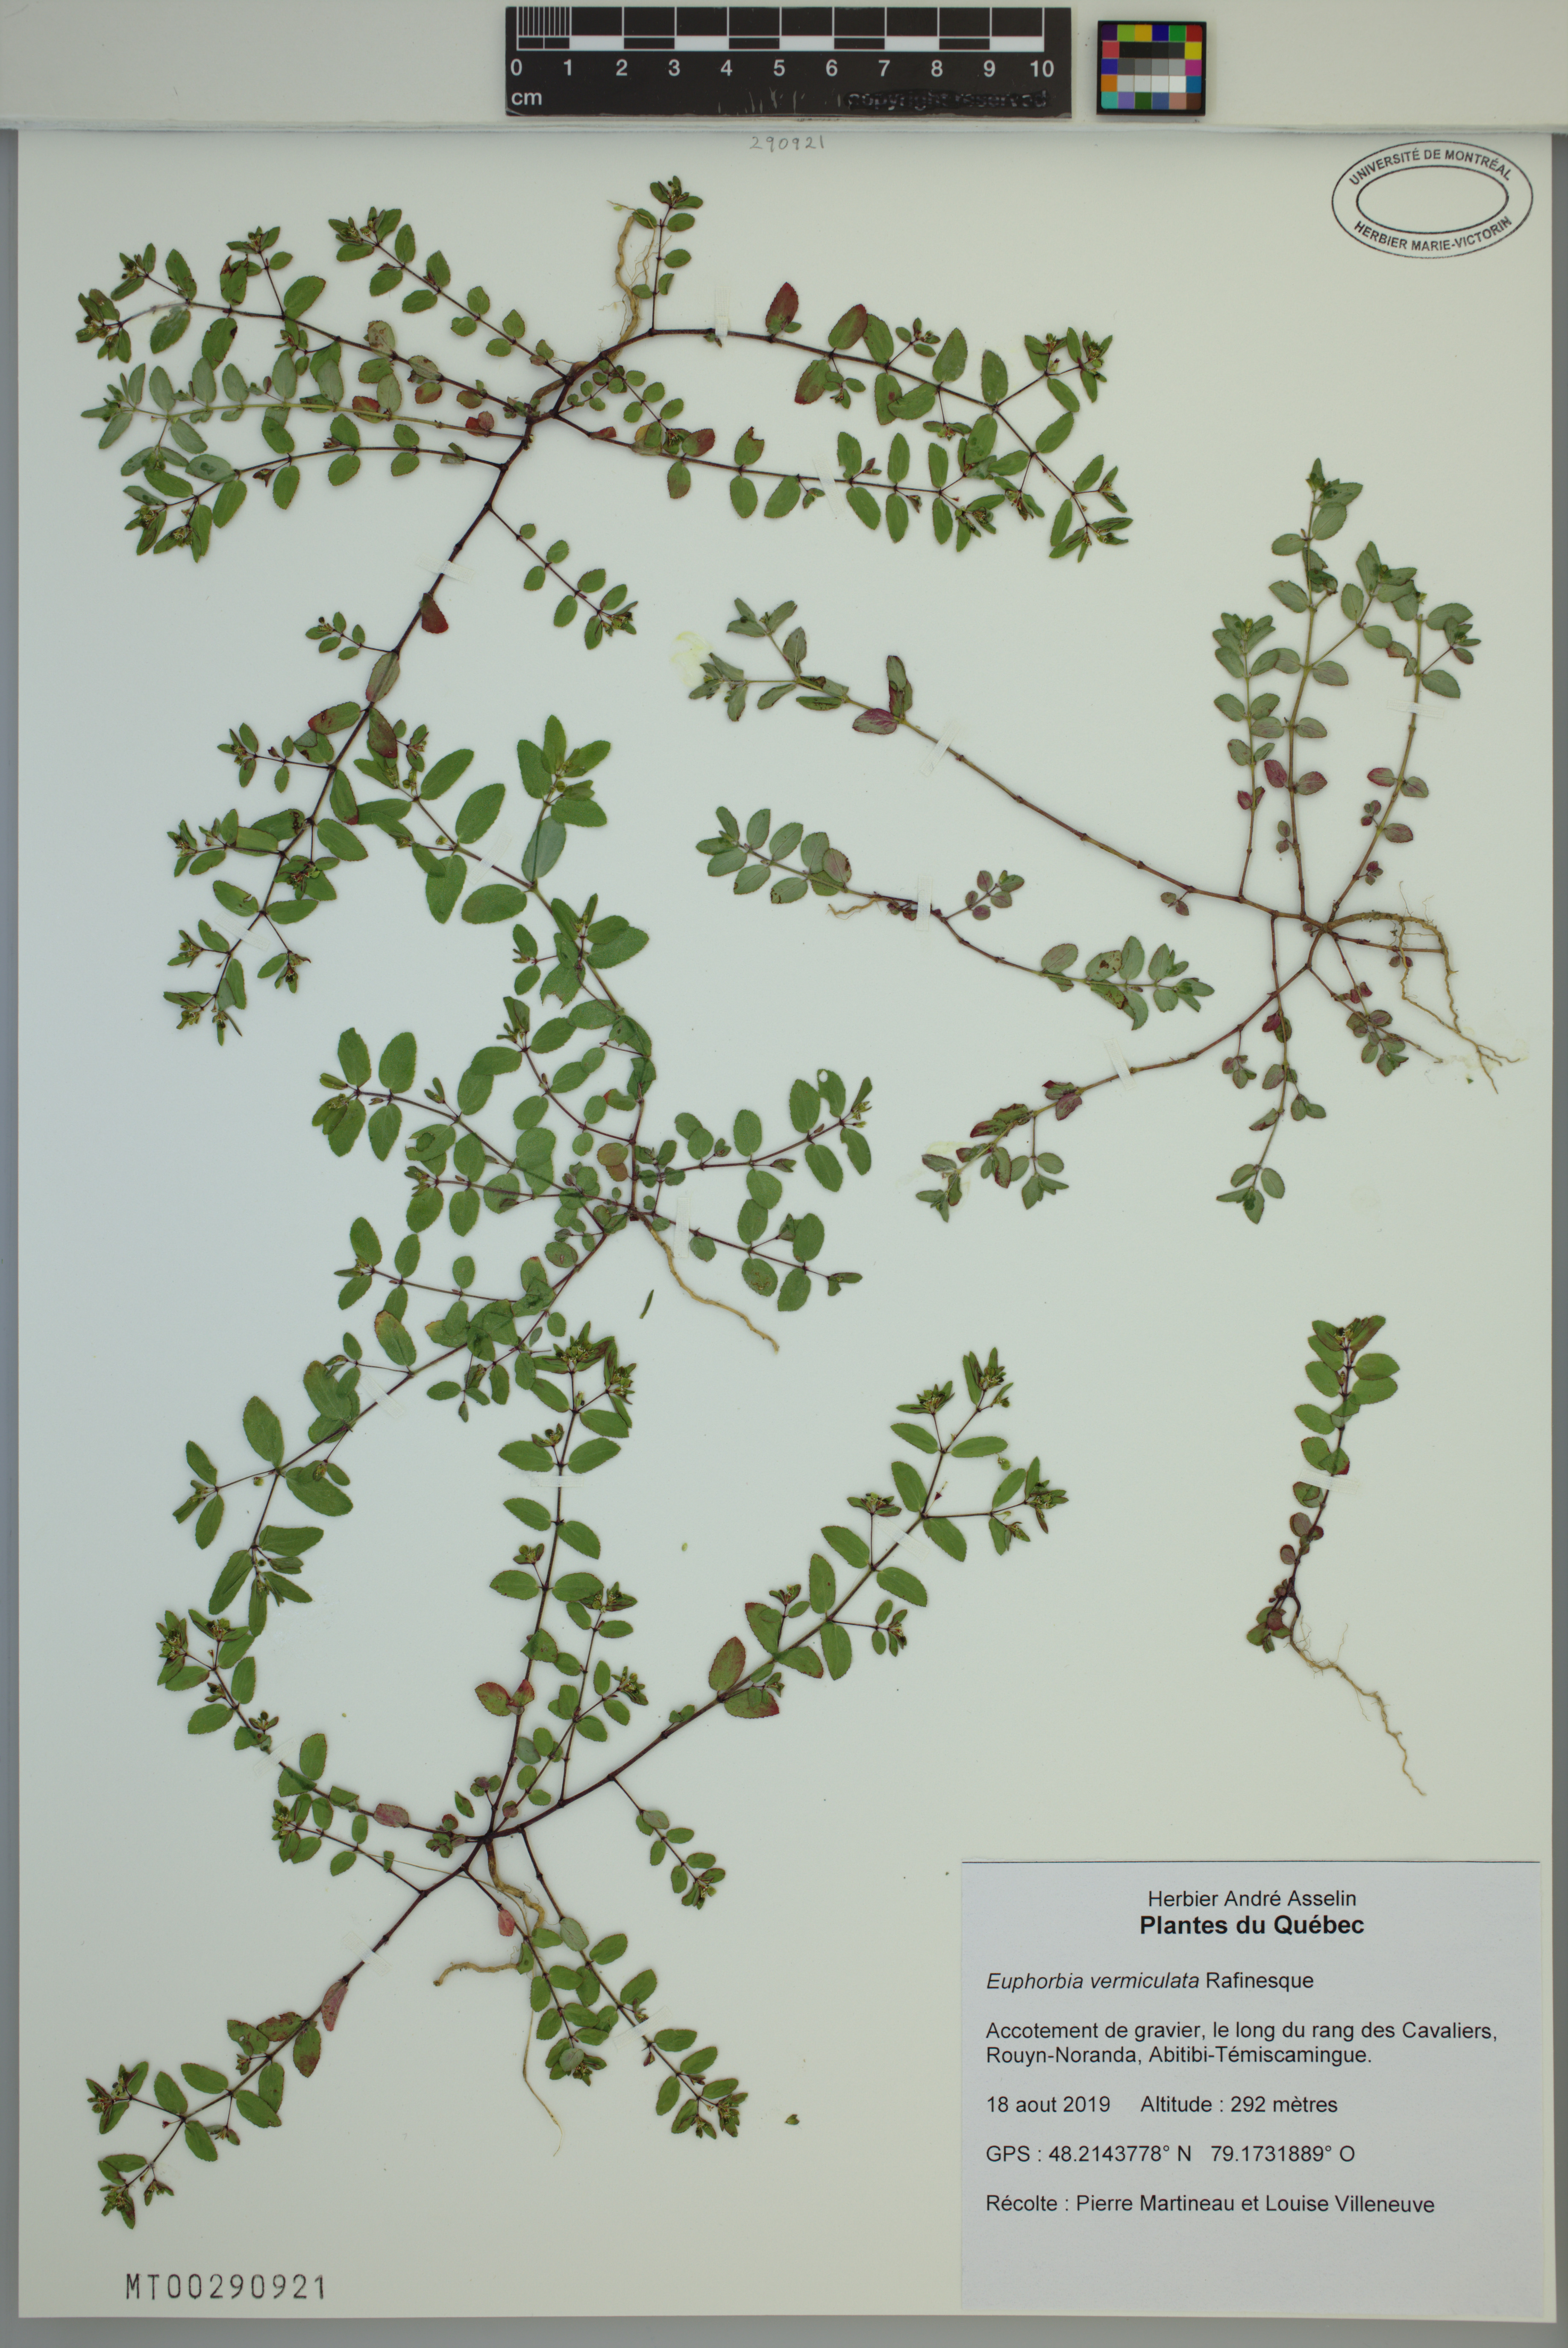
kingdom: Plantae
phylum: Tracheophyta
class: Magnoliopsida
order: Malpighiales
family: Euphorbiaceae
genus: Euphorbia
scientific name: Euphorbia vermiculata
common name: Hairy spurge
